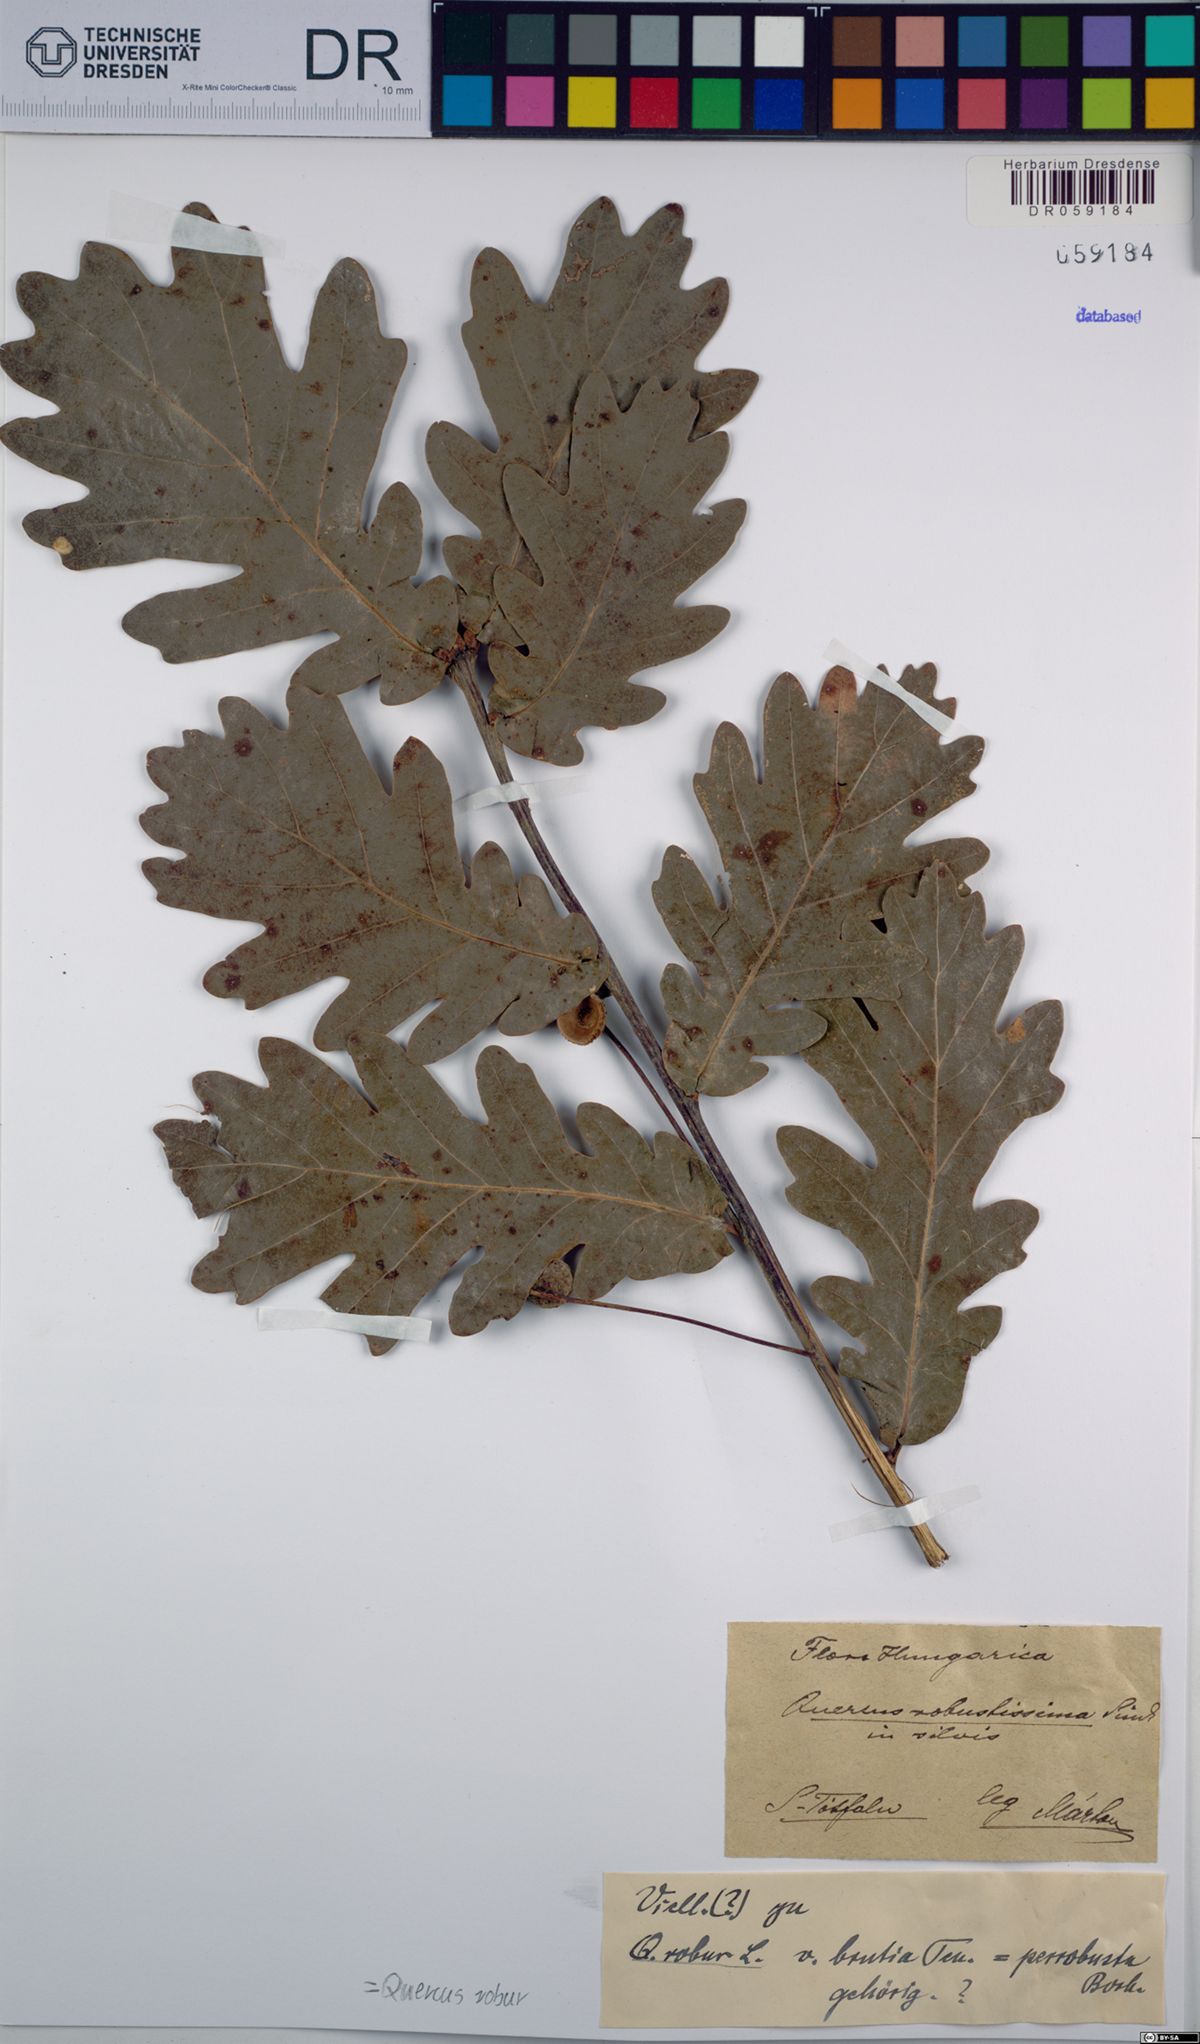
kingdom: Plantae
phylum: Tracheophyta
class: Magnoliopsida
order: Fagales
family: Fagaceae
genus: Quercus
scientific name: Quercus robur
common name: Pedunculate oak
